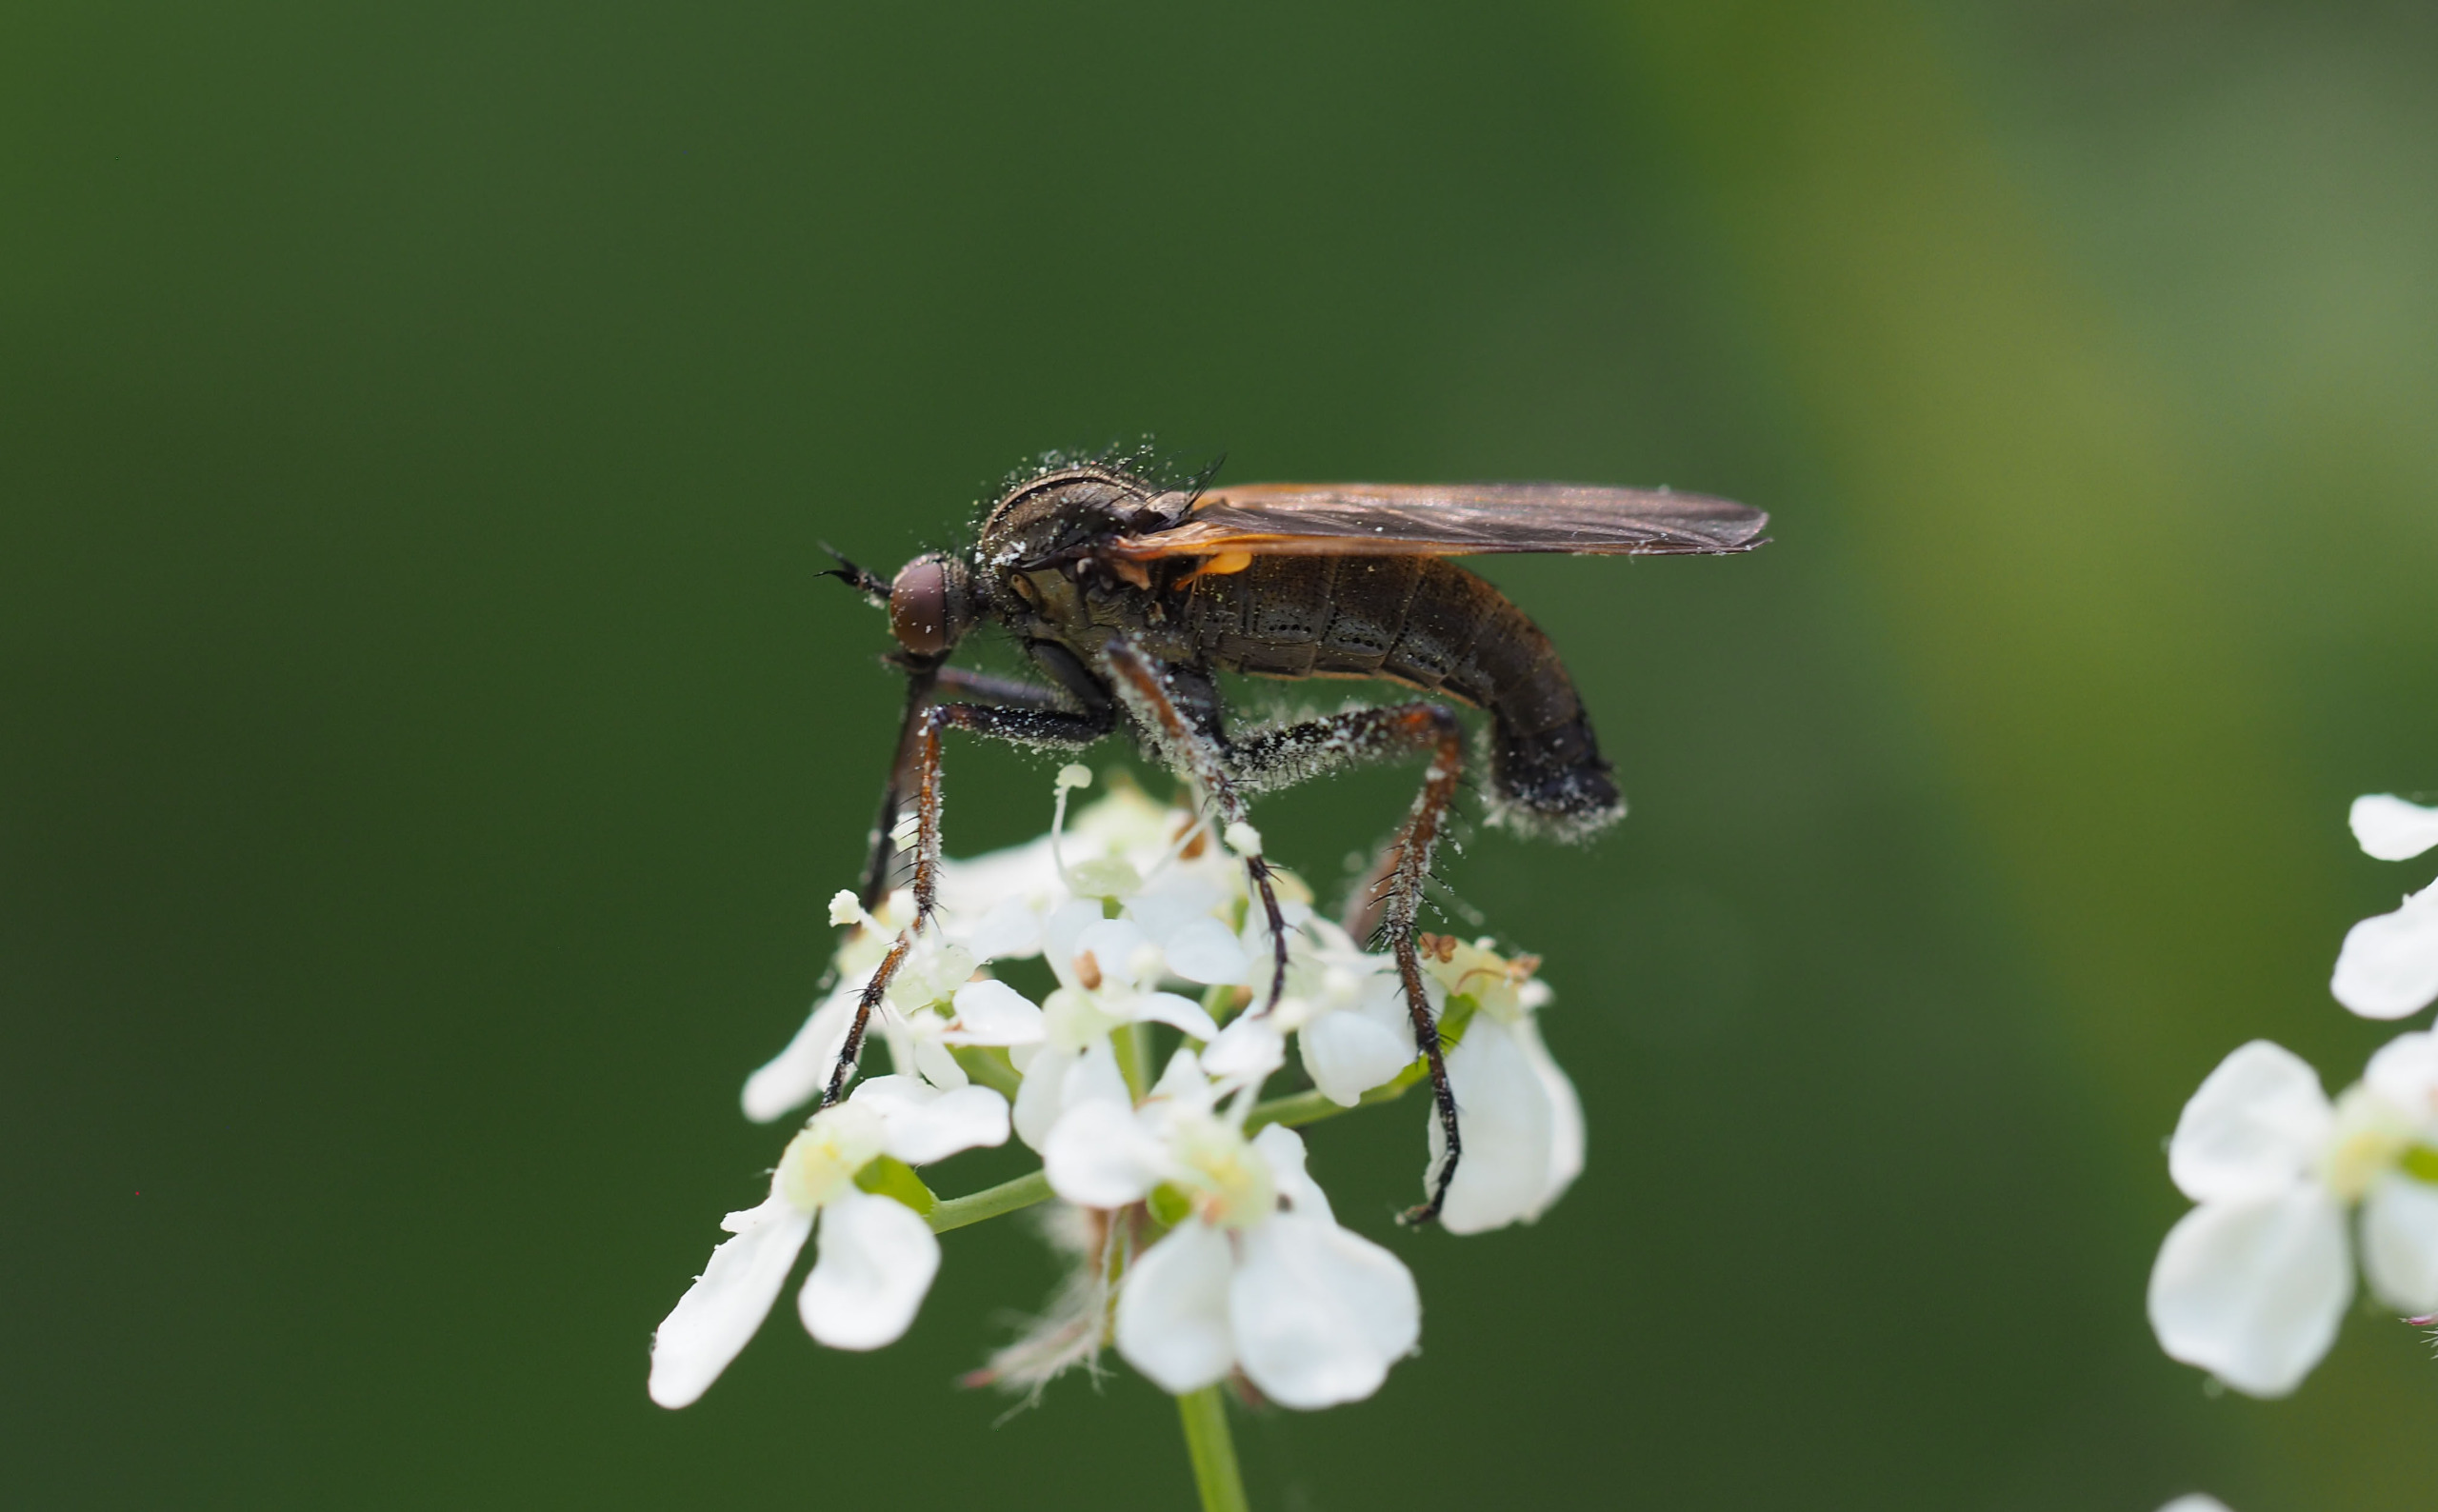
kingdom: Animalia
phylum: Arthropoda
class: Insecta
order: Diptera
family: Empididae
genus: Empis
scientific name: Empis tessellata
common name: Stor danseflue
